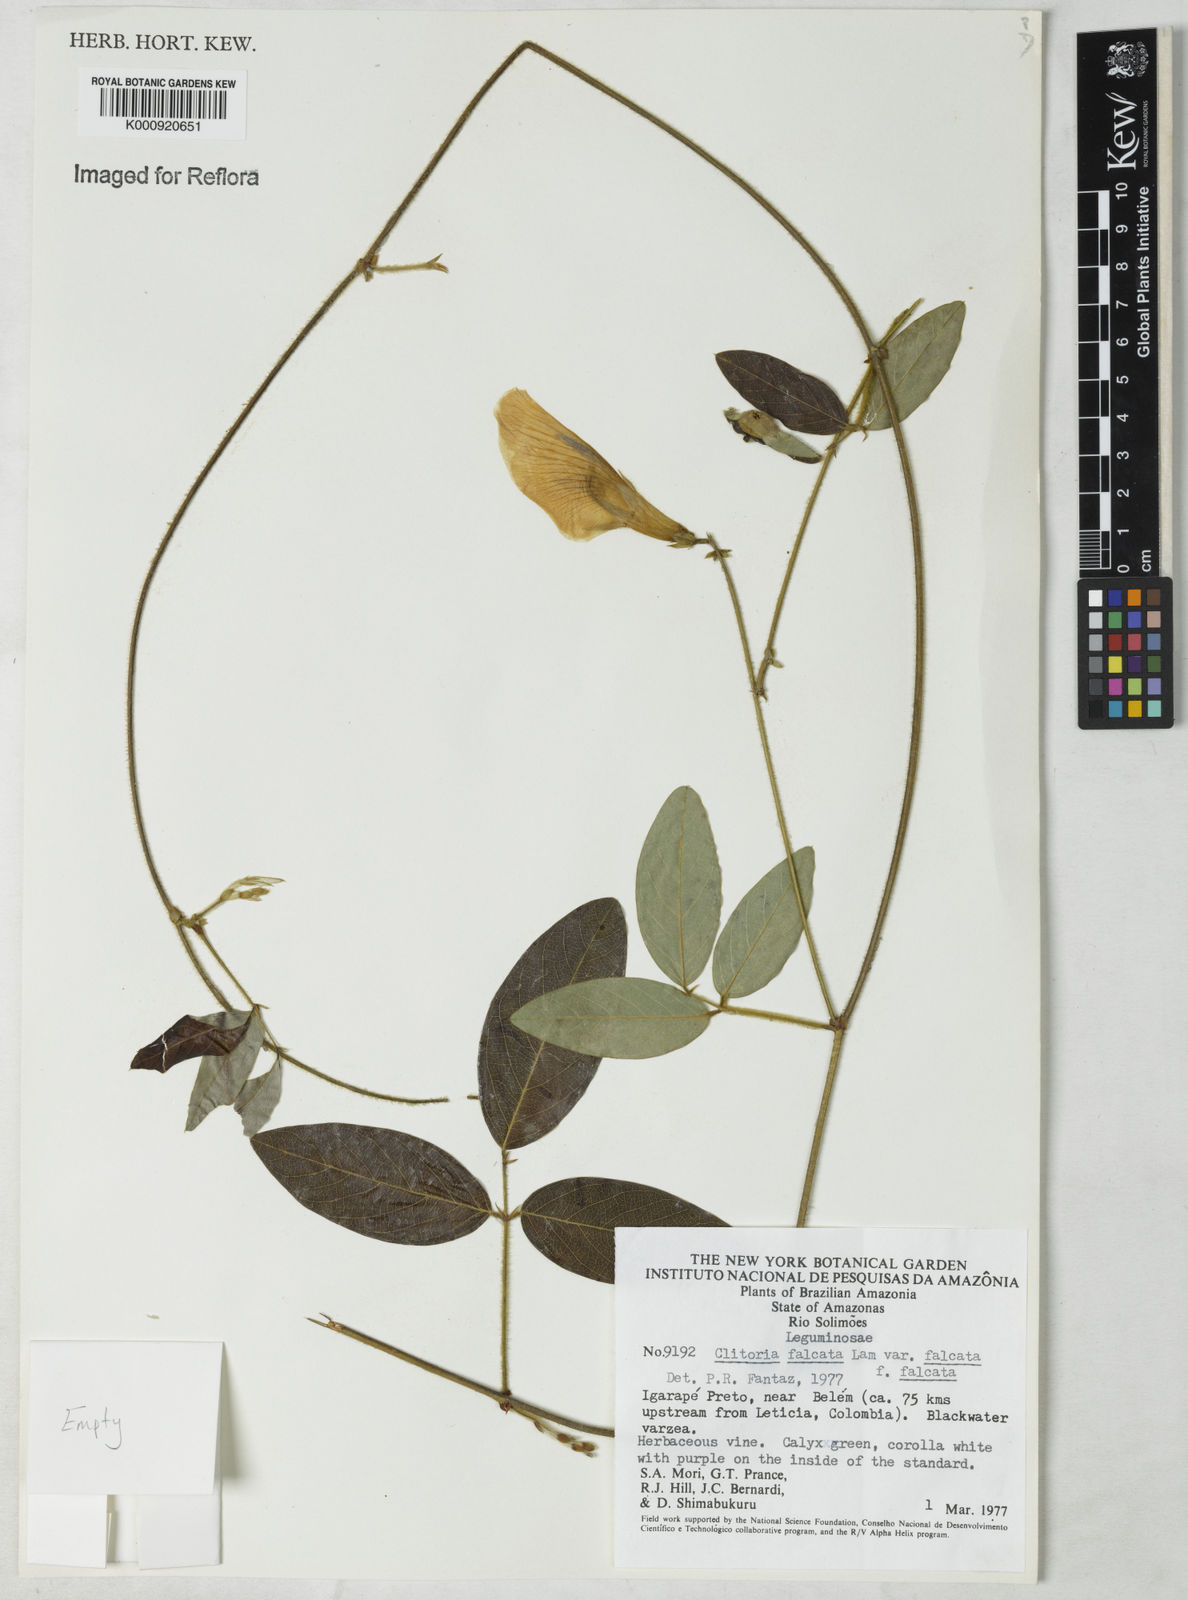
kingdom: Plantae
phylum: Tracheophyta
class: Magnoliopsida
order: Fabales
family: Fabaceae
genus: Clitoria
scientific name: Clitoria falcata
